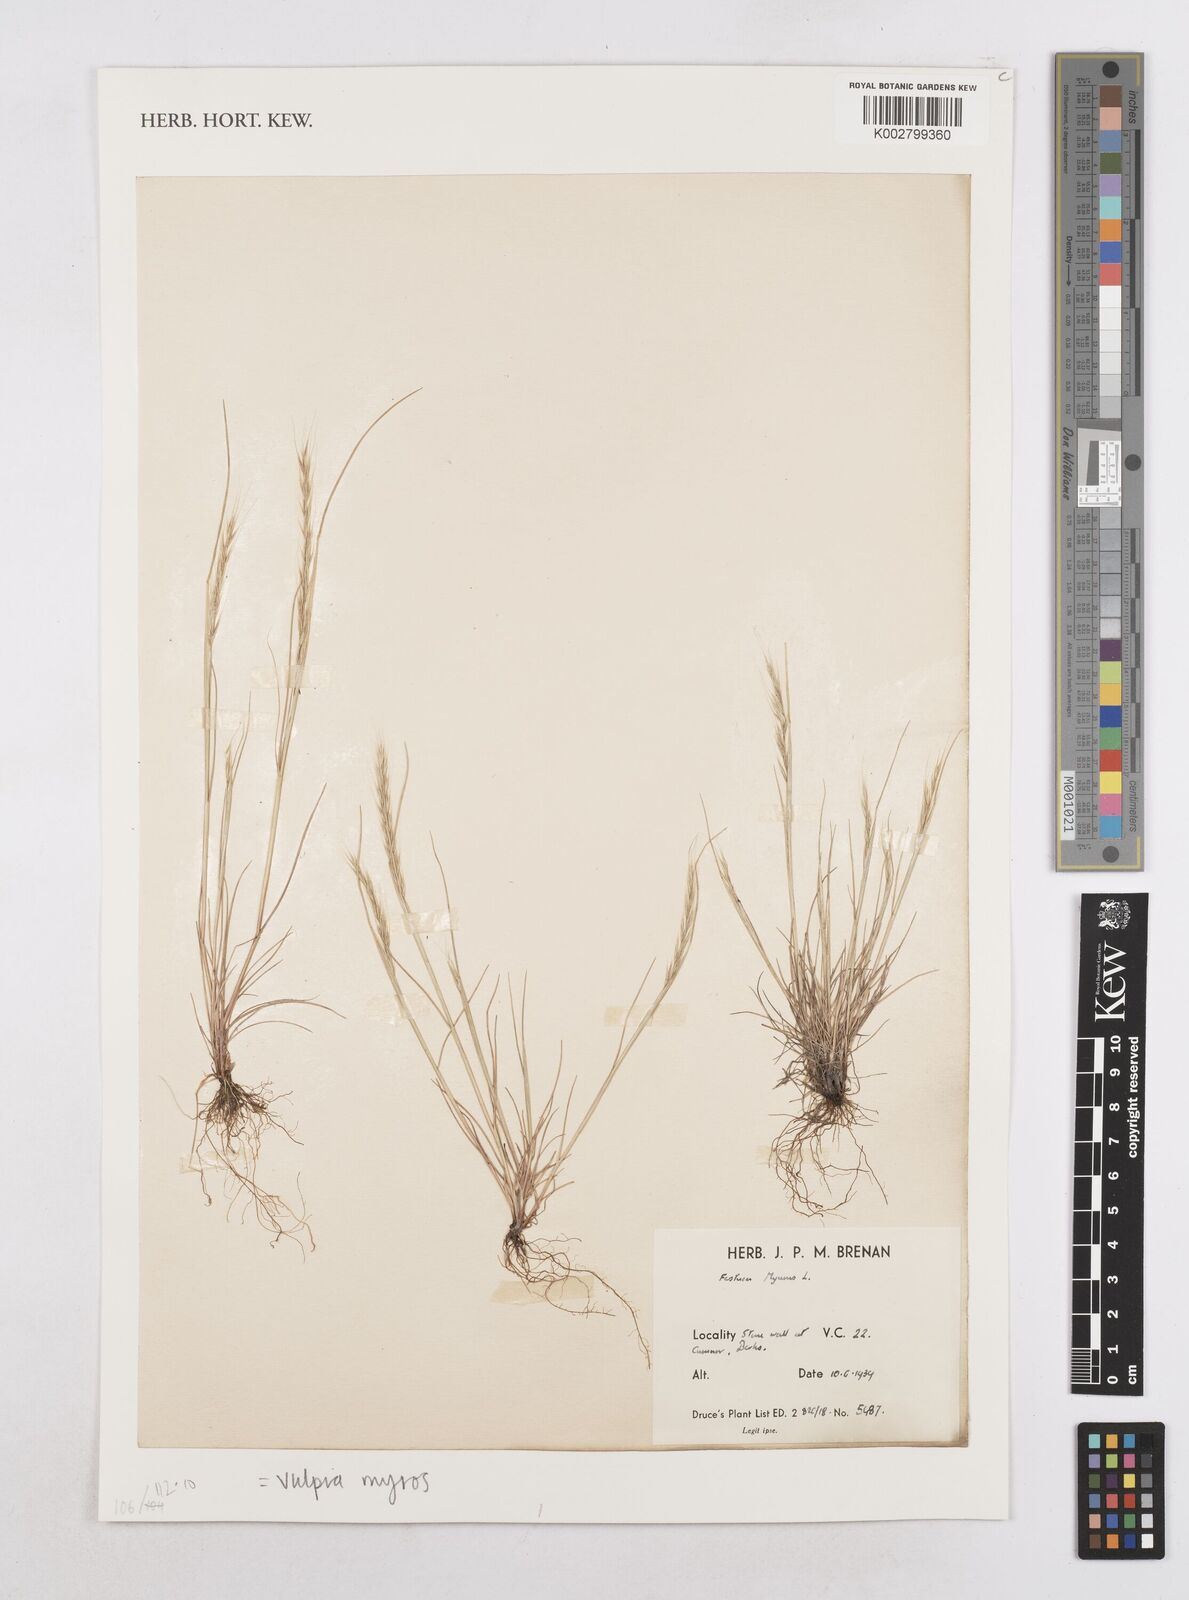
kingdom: Plantae
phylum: Tracheophyta
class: Liliopsida
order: Poales
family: Poaceae
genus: Festuca
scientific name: Festuca myuros
